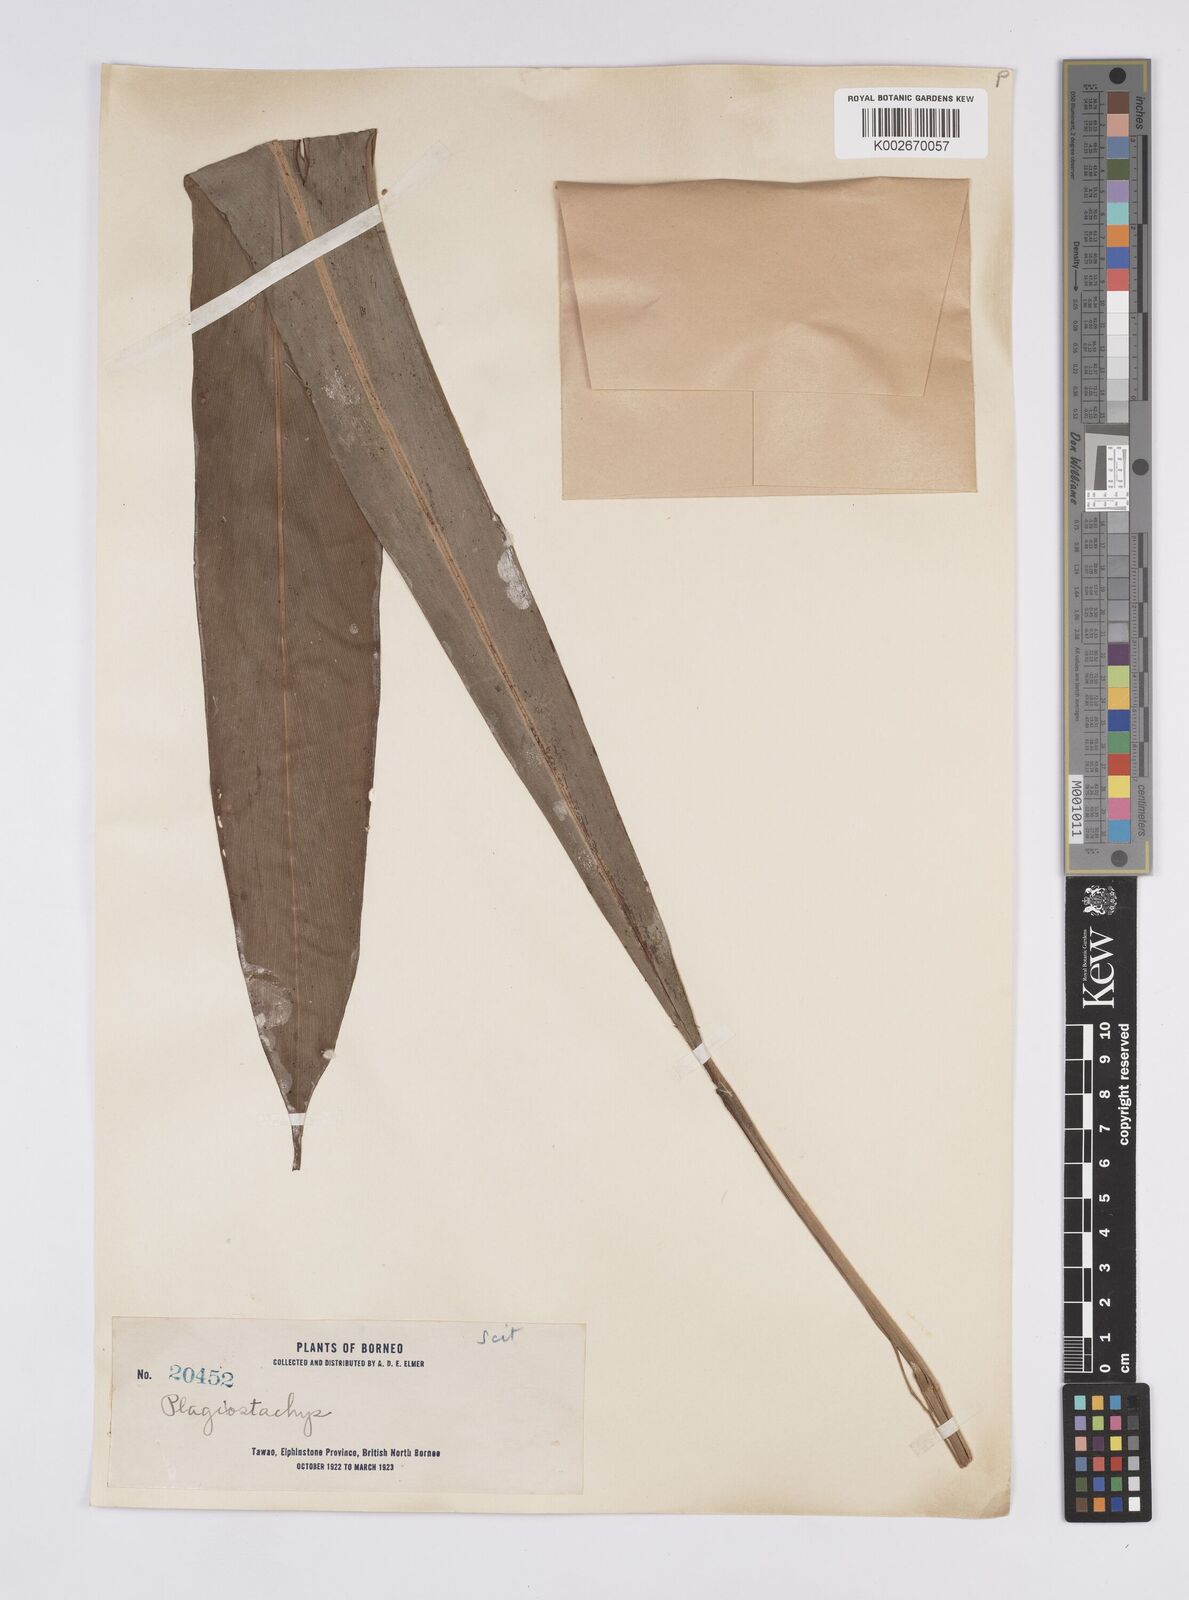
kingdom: Plantae
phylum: Tracheophyta
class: Liliopsida
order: Zingiberales
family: Zingiberaceae
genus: Plagiostachys
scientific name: Plagiostachys
